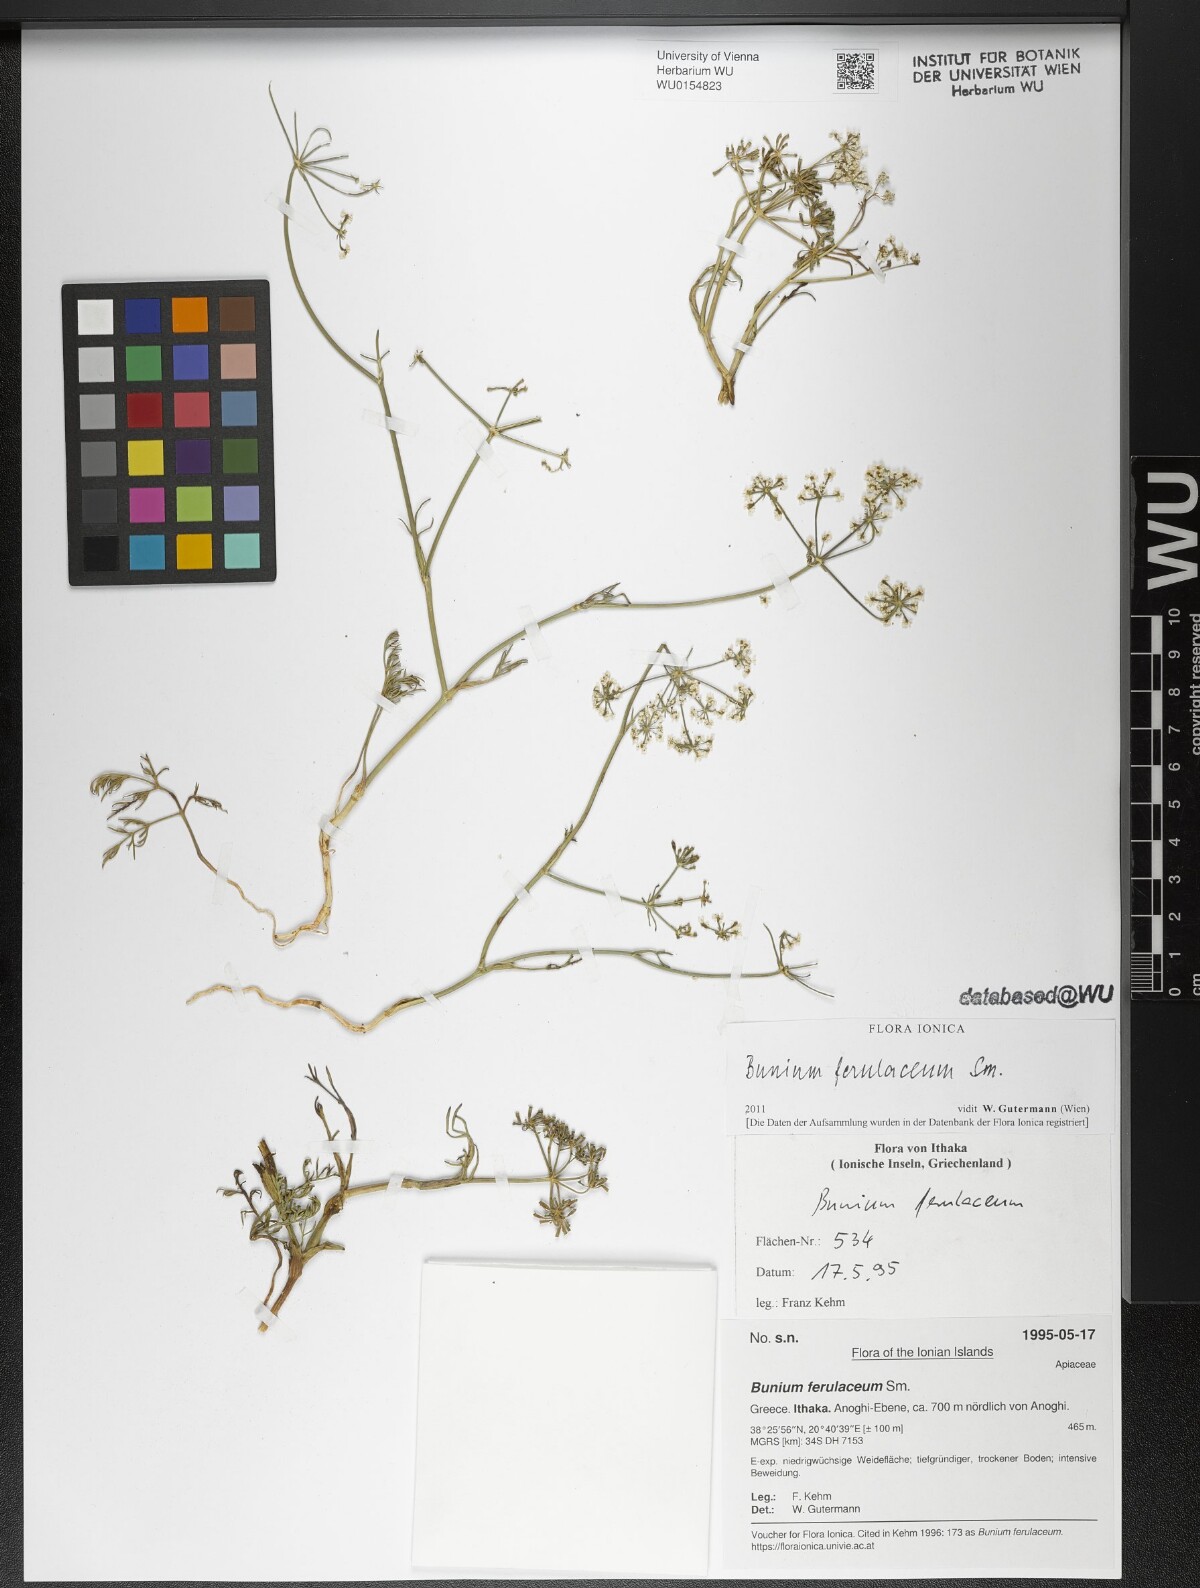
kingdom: Plantae
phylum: Tracheophyta
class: Magnoliopsida
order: Apiales
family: Apiaceae
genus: Bunium
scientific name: Bunium ferulaceum
